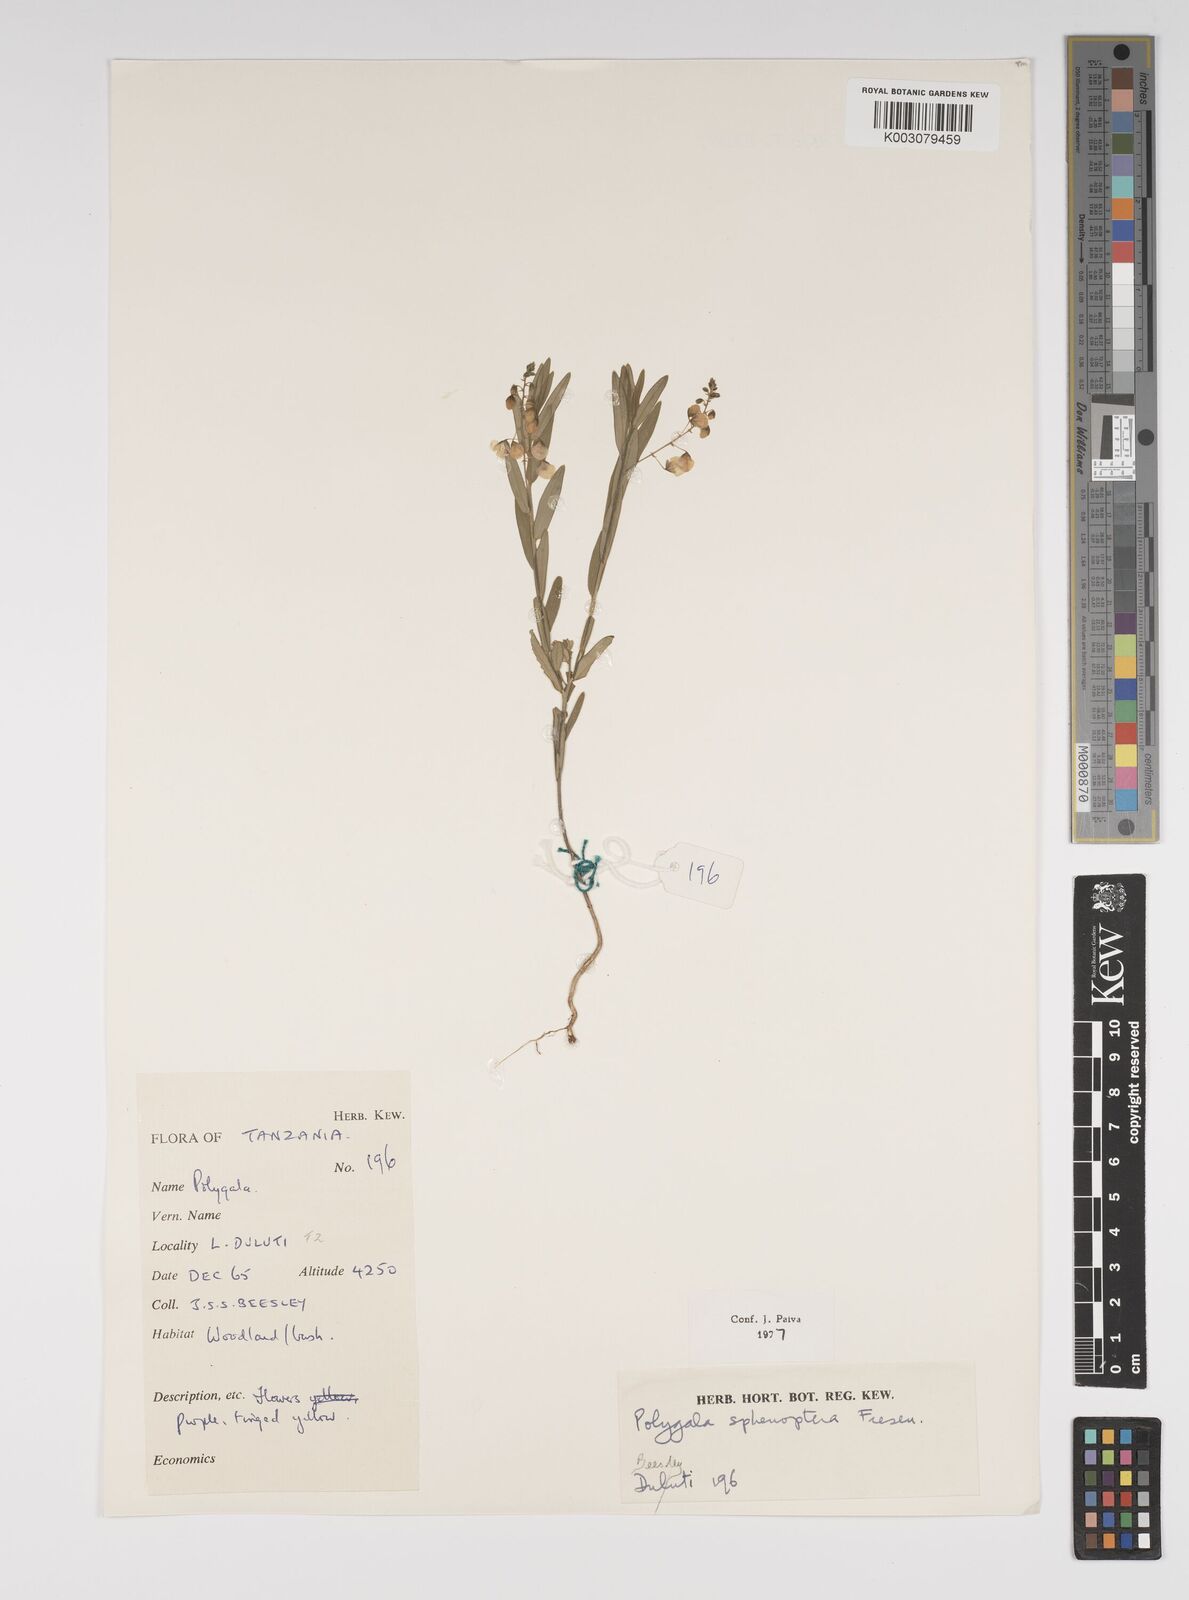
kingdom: Plantae
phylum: Tracheophyta
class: Magnoliopsida
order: Fabales
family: Polygalaceae
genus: Polygala
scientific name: Polygala sphenoptera
